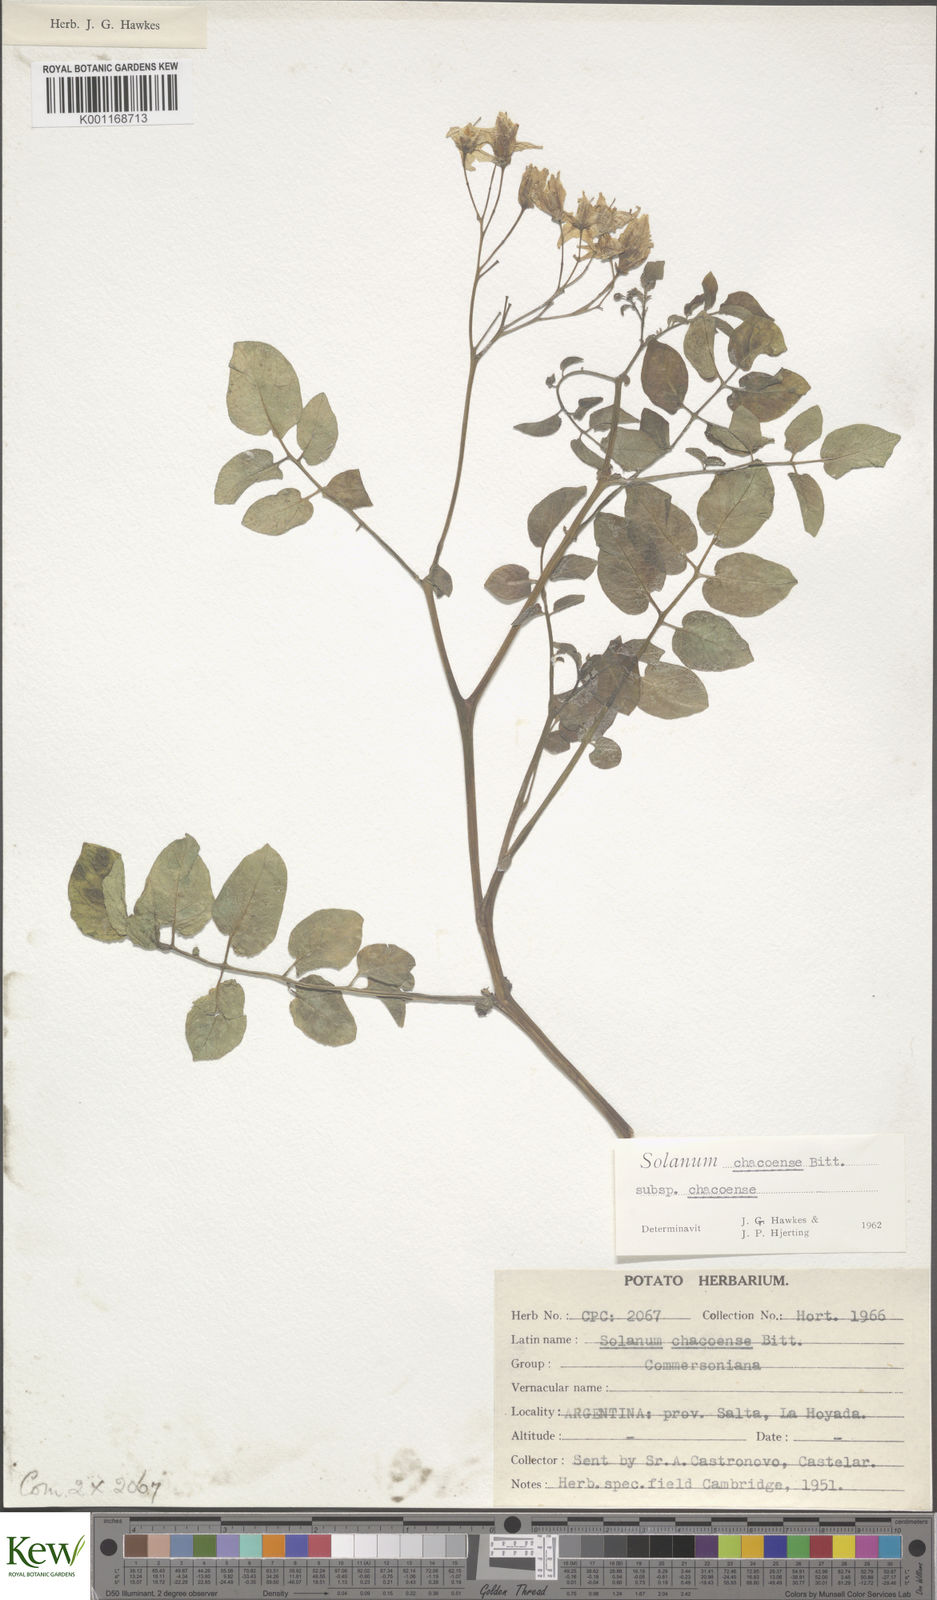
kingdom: Plantae
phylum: Tracheophyta
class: Magnoliopsida
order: Solanales
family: Solanaceae
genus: Solanum
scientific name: Solanum chacoense
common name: Chaco potato
